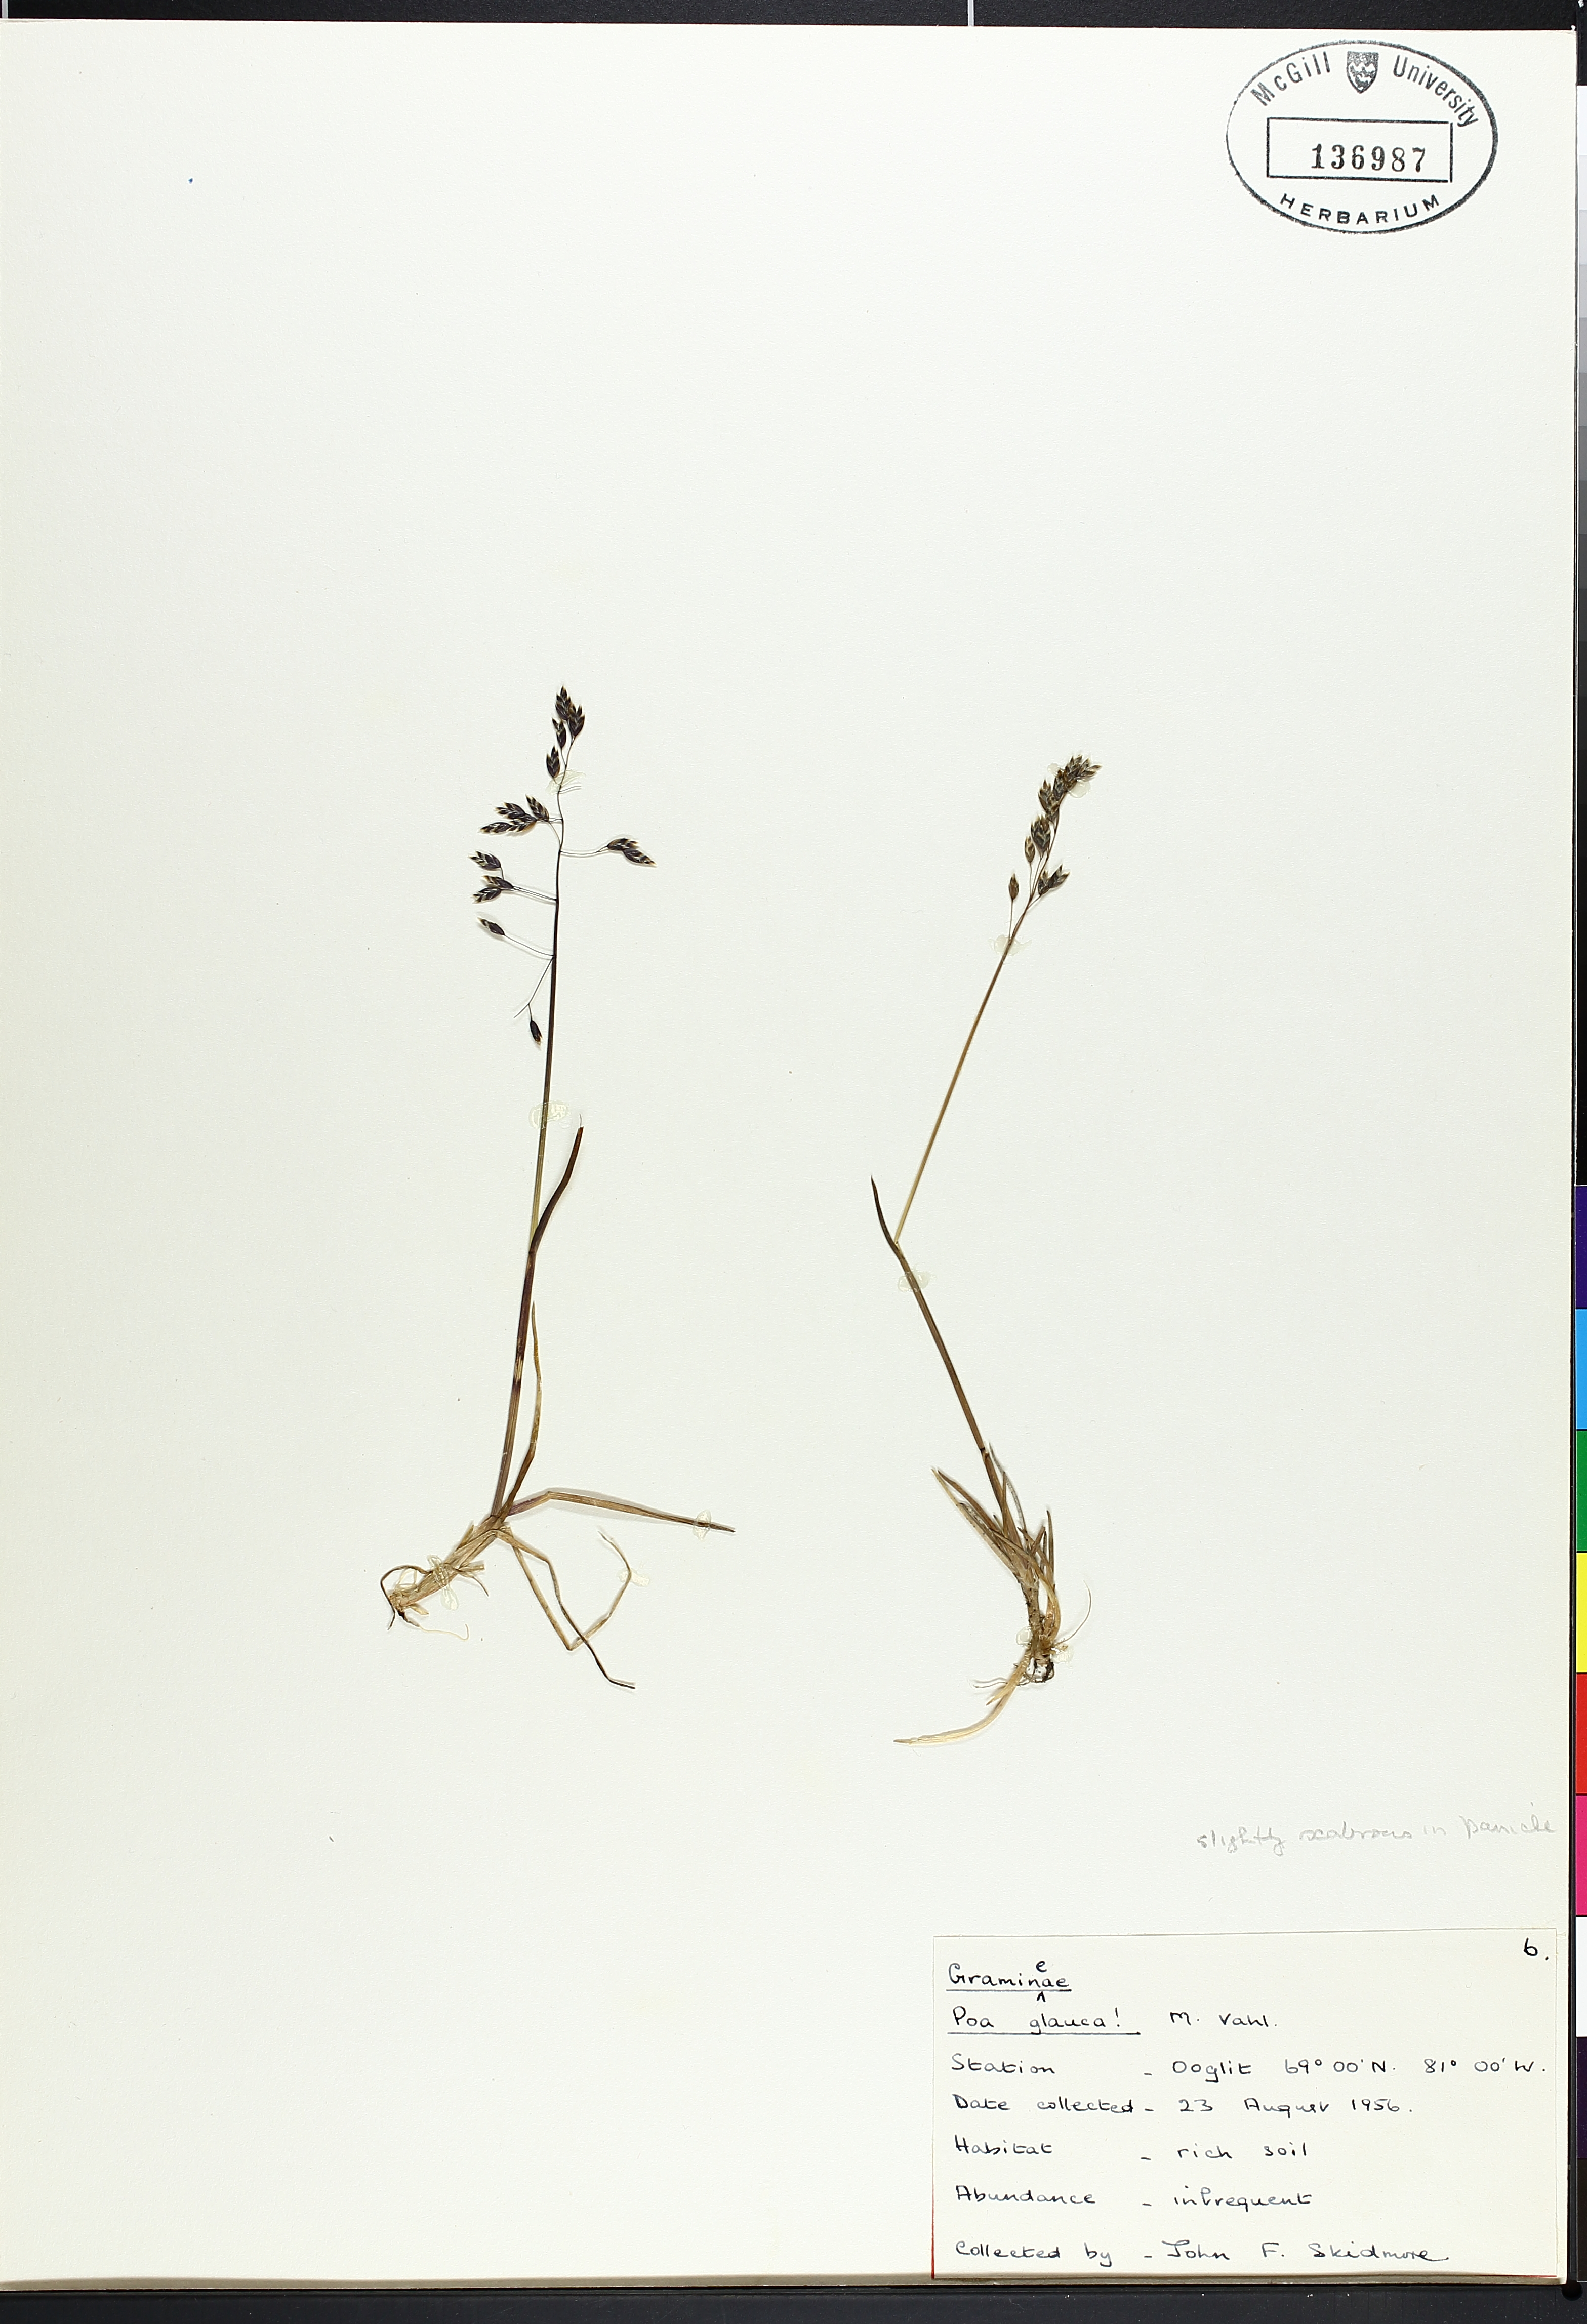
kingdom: Plantae
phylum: Tracheophyta
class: Liliopsida
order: Poales
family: Poaceae
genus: Poa
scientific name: Poa glauca
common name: Glaucous bluegrass
